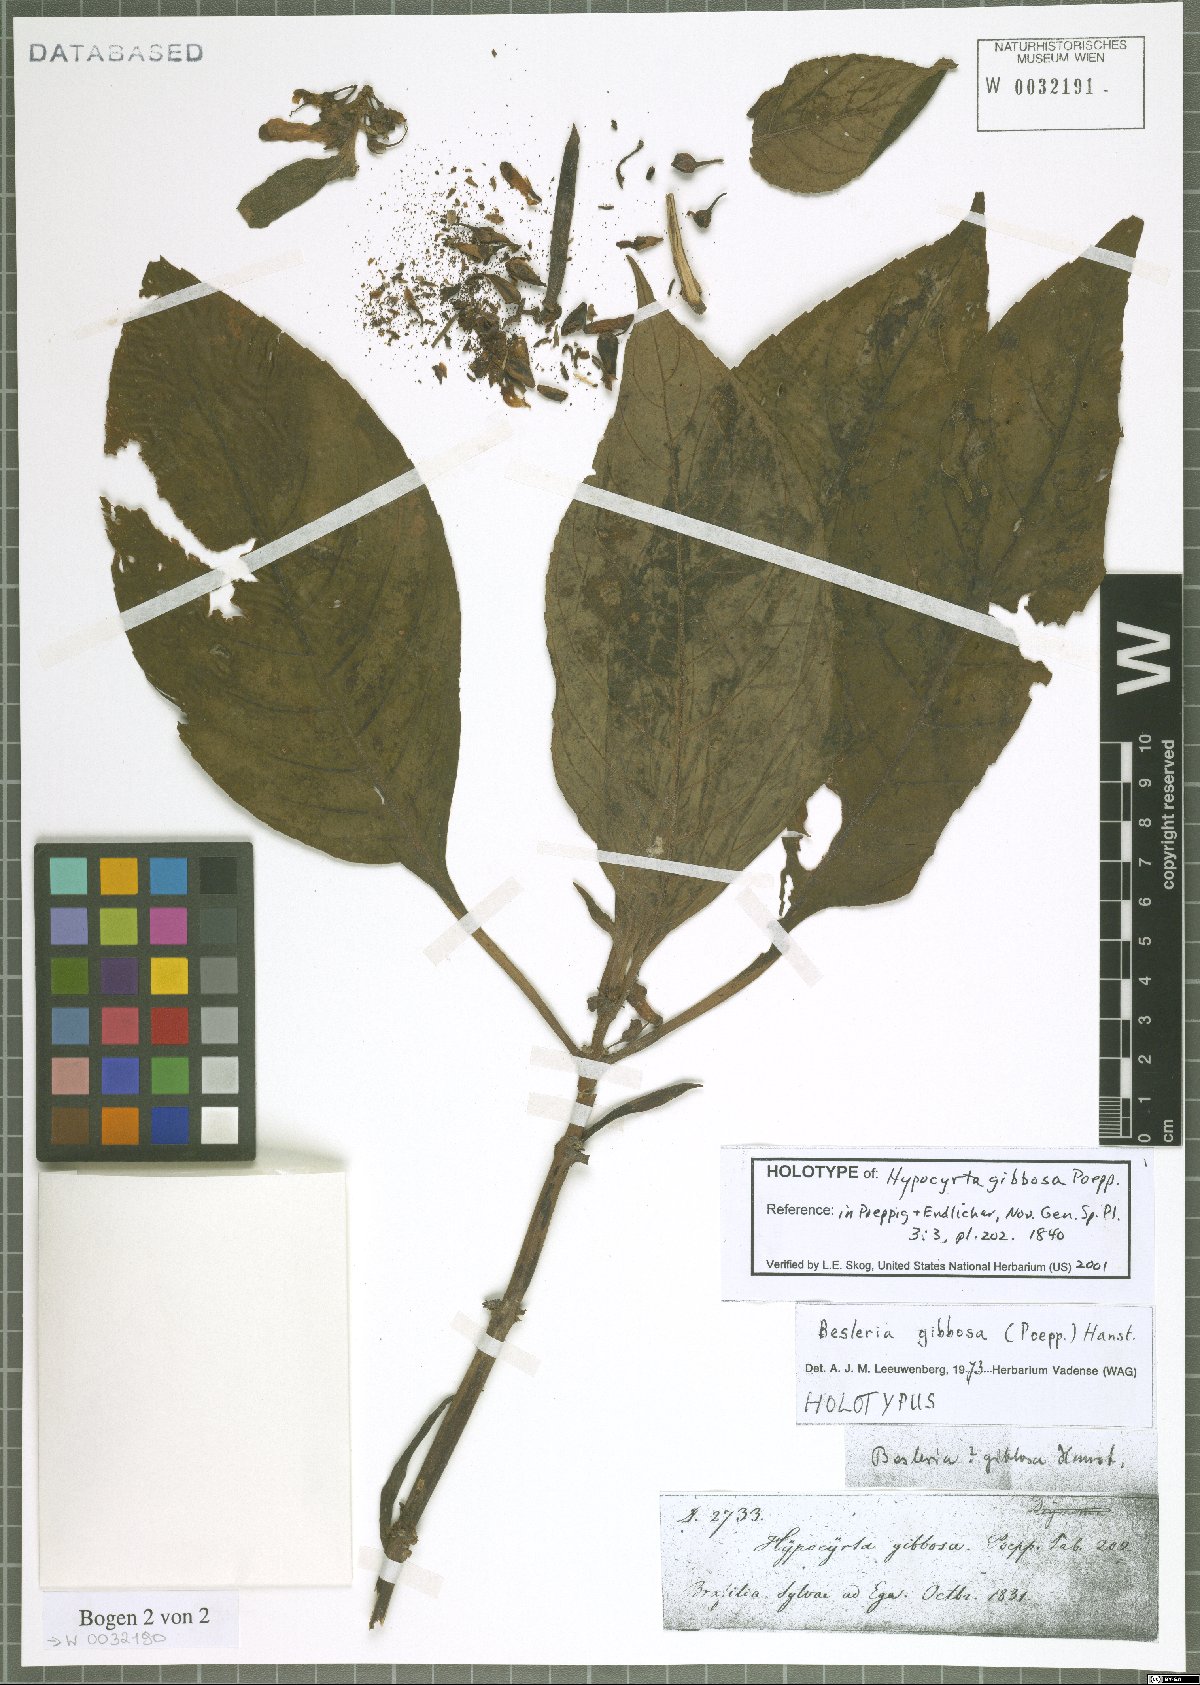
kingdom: Plantae
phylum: Tracheophyta
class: Magnoliopsida
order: Lamiales
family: Gesneriaceae
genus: Besleria
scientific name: Besleria gibbosa
